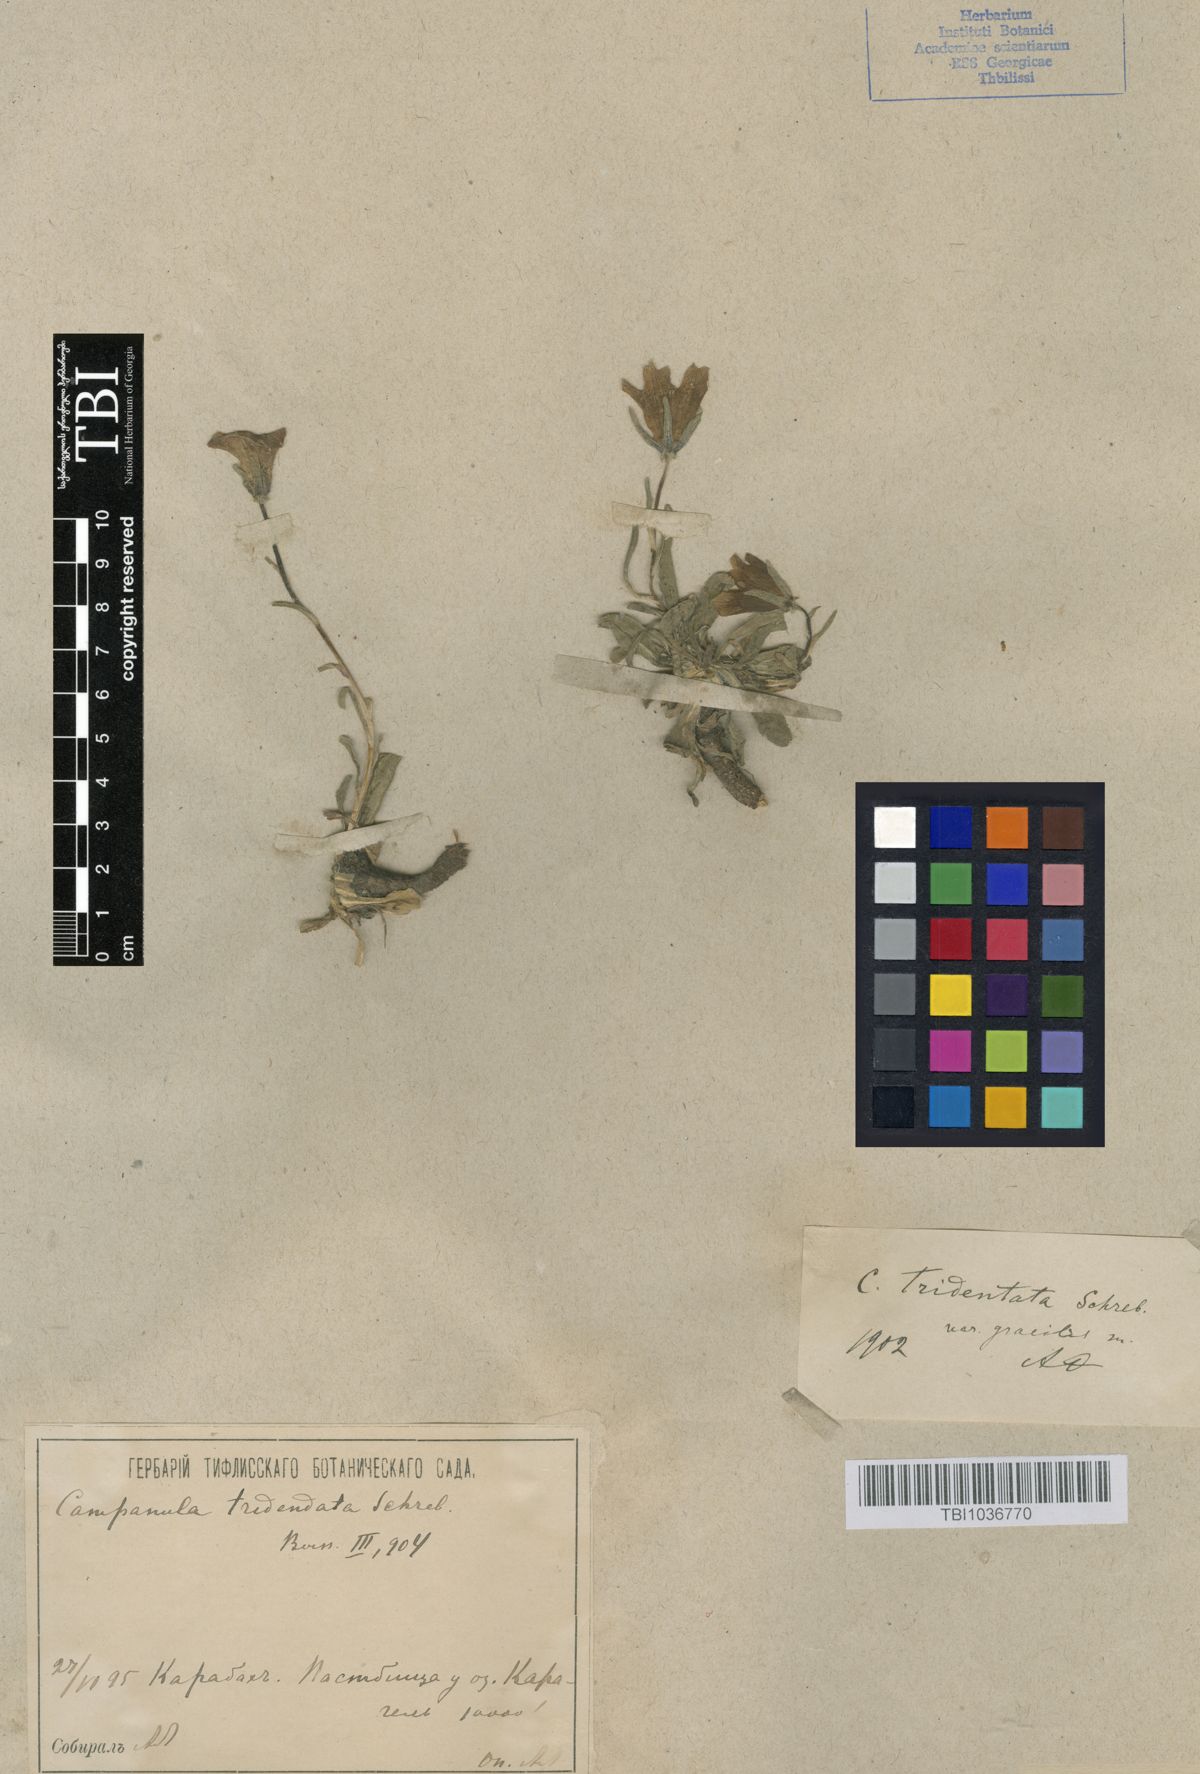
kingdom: Plantae
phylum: Tracheophyta
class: Magnoliopsida
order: Asterales
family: Campanulaceae
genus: Campanula
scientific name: Campanula tridentata
